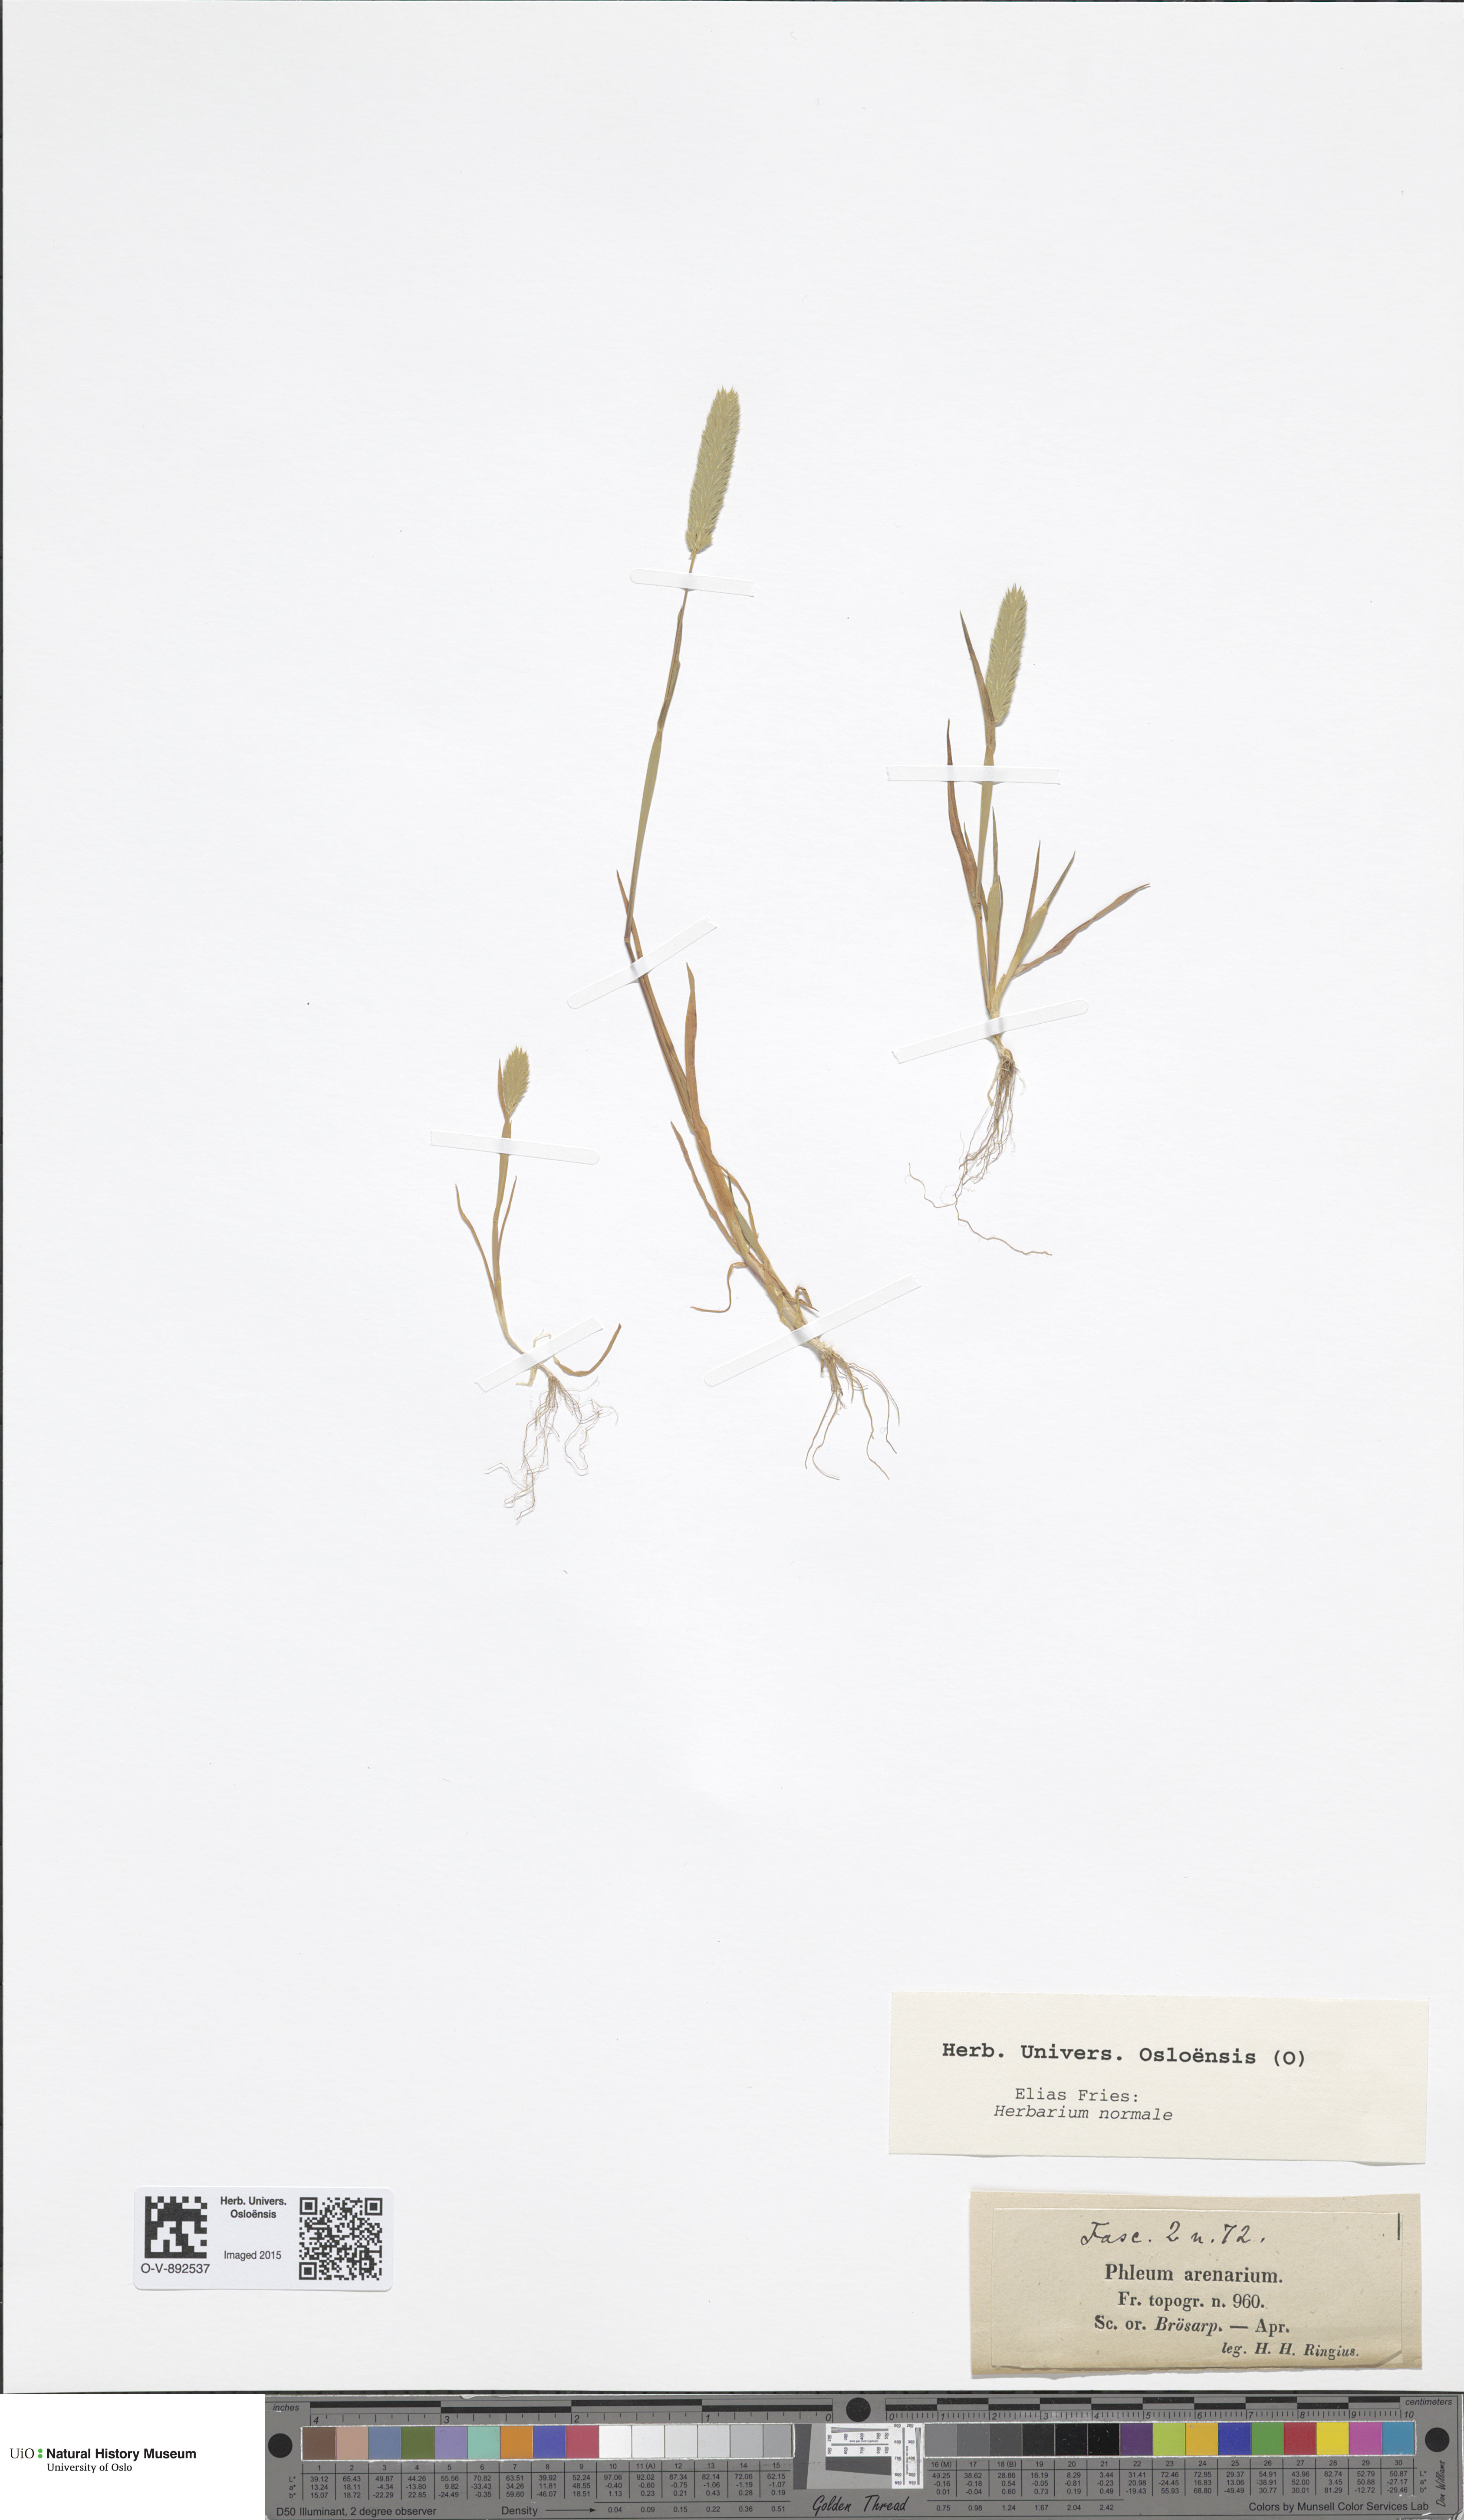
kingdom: Plantae
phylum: Tracheophyta
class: Liliopsida
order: Poales
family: Poaceae
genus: Phleum
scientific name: Phleum arenarium
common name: Sand cat's-tail
